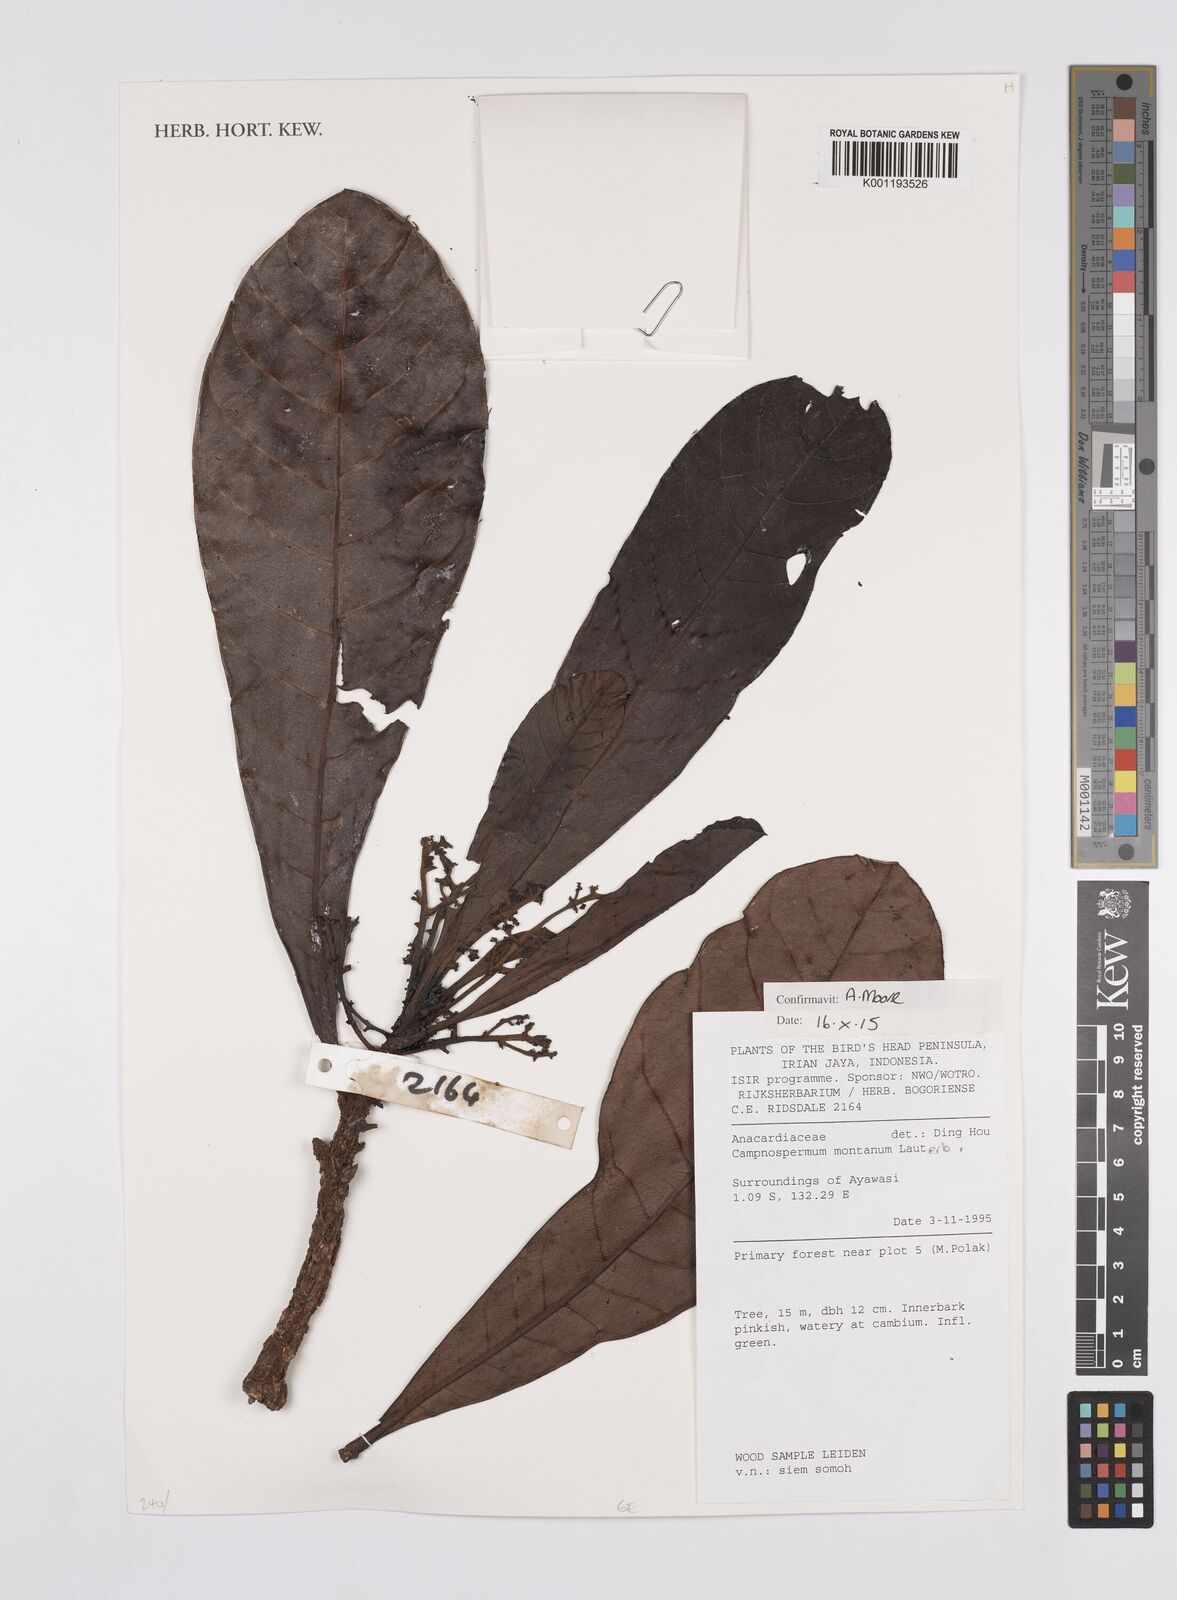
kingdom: Plantae
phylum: Tracheophyta
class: Magnoliopsida
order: Sapindales
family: Anacardiaceae
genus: Campnosperma
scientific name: Campnosperma montanum
